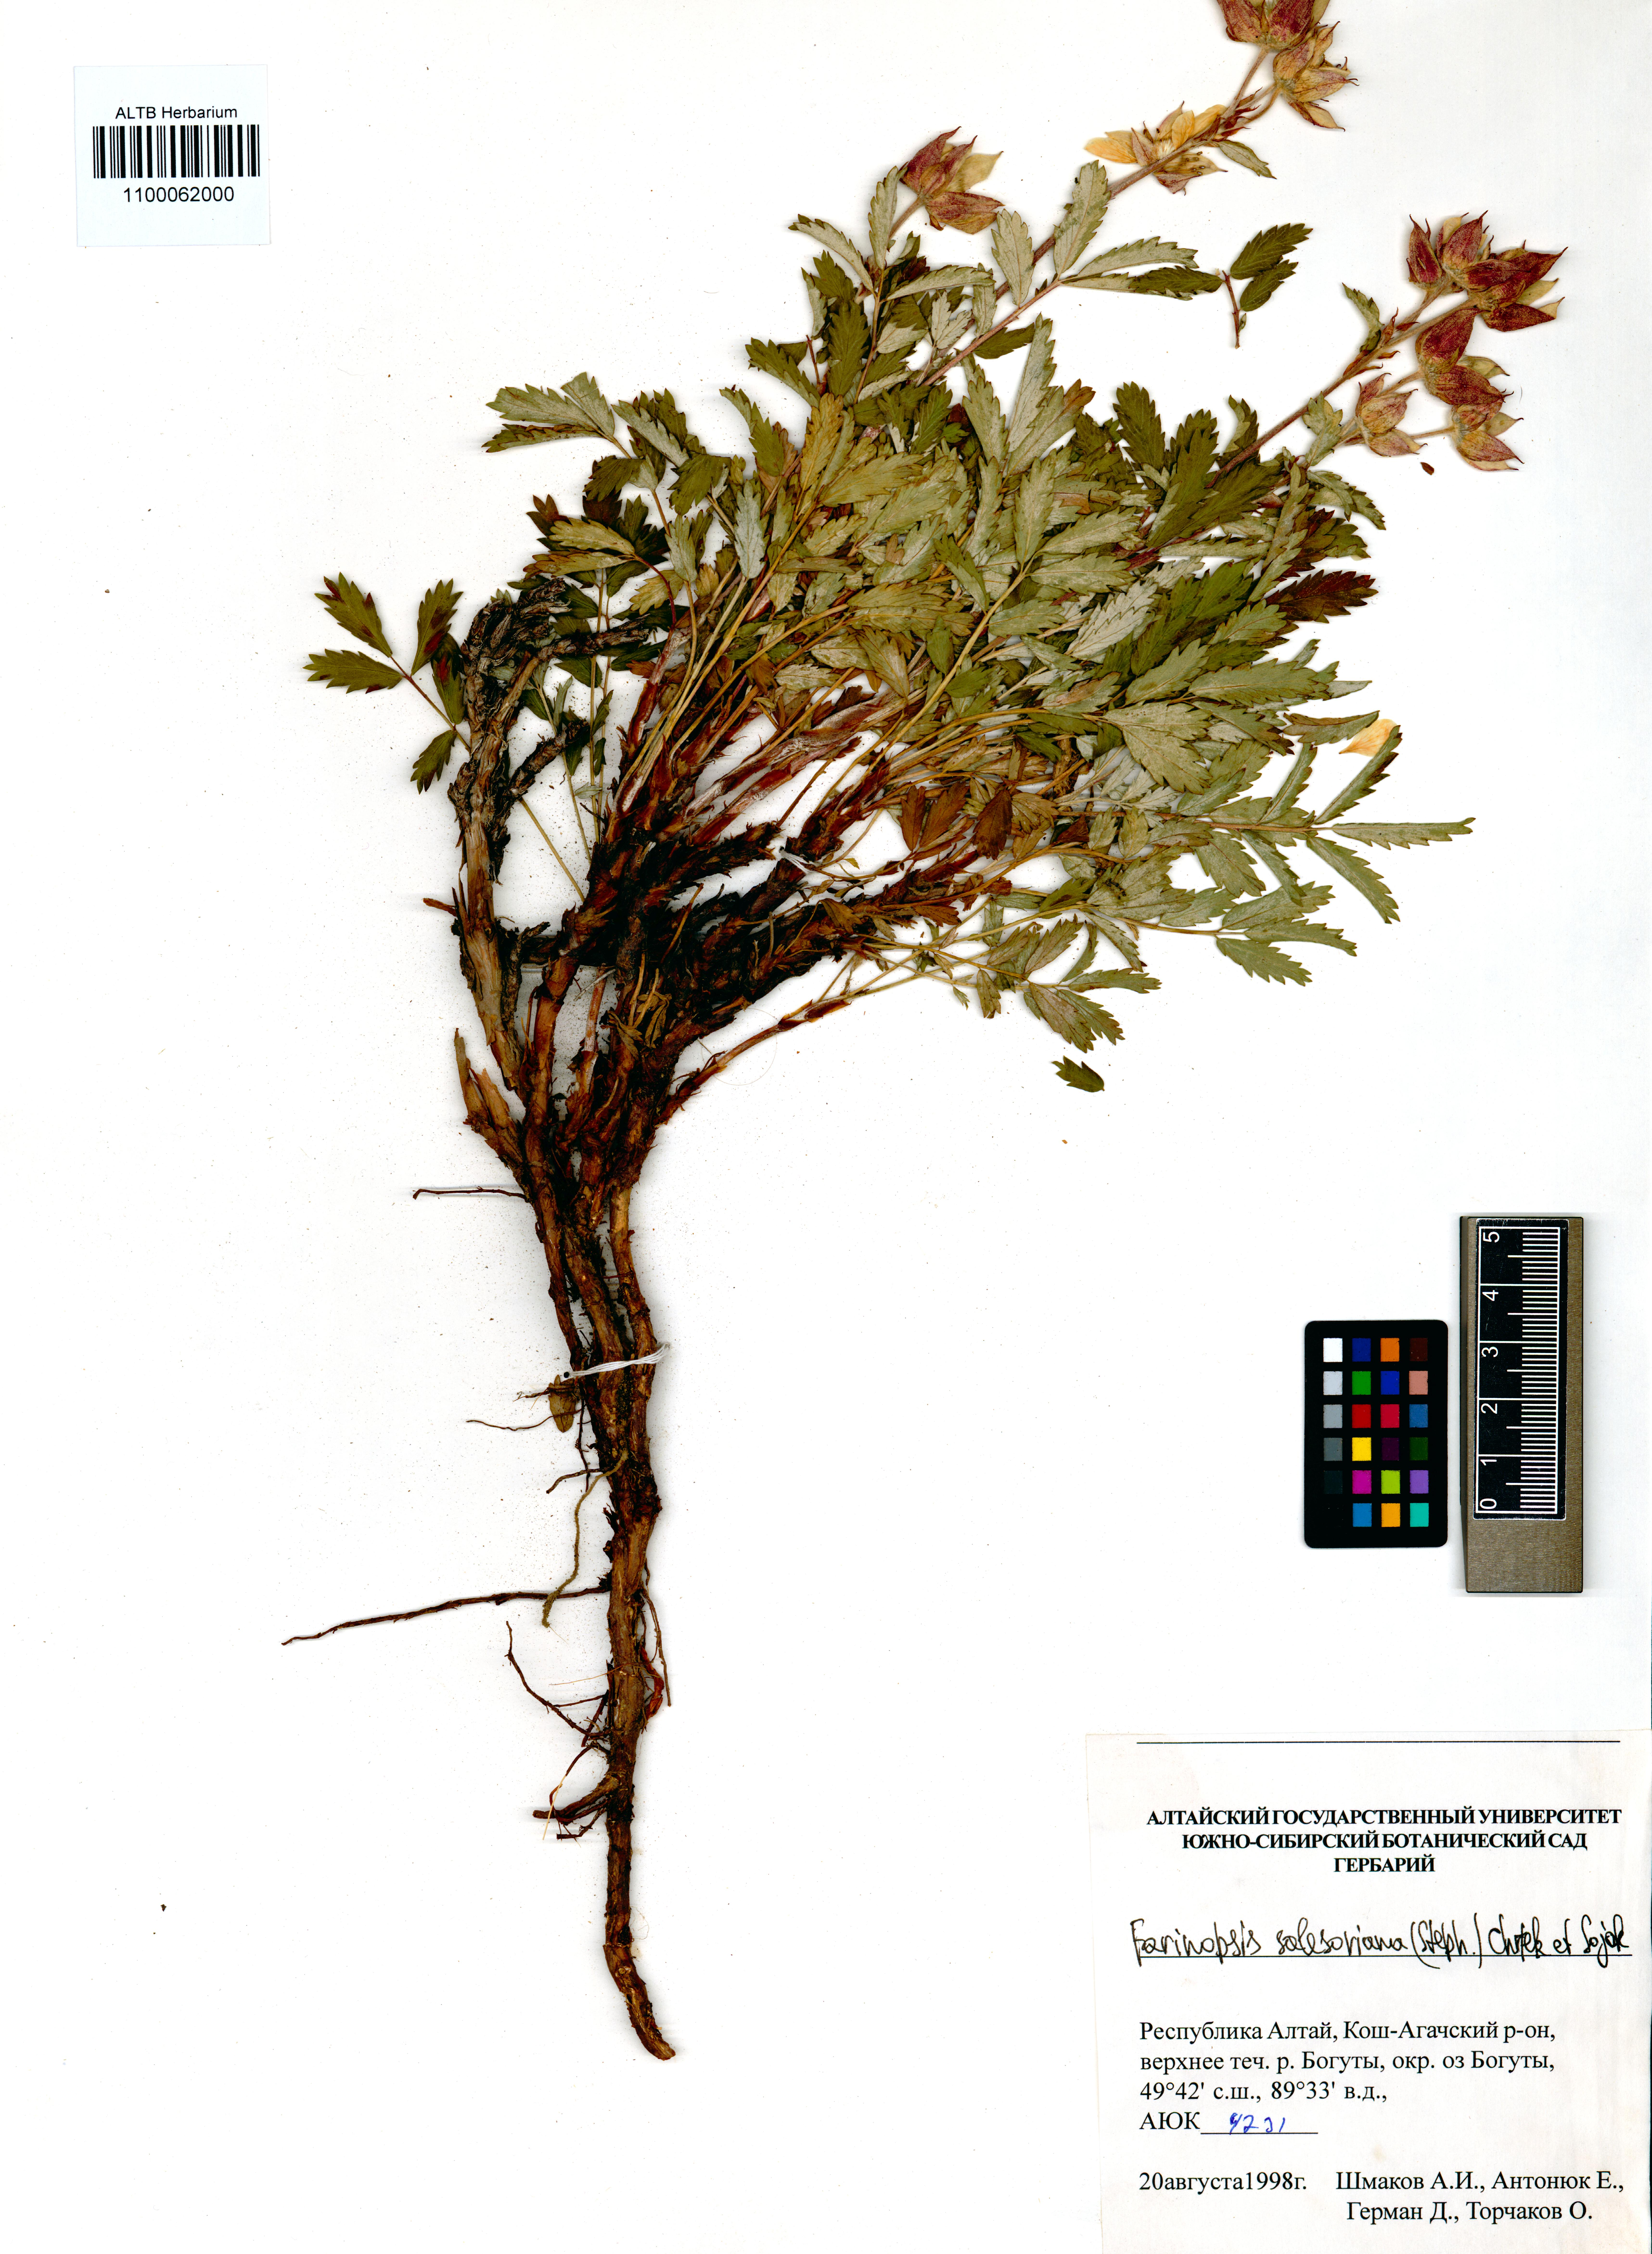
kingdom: Plantae
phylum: Tracheophyta
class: Magnoliopsida
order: Rosales
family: Rosaceae
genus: Farinopsis
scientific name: Farinopsis salesoviana
